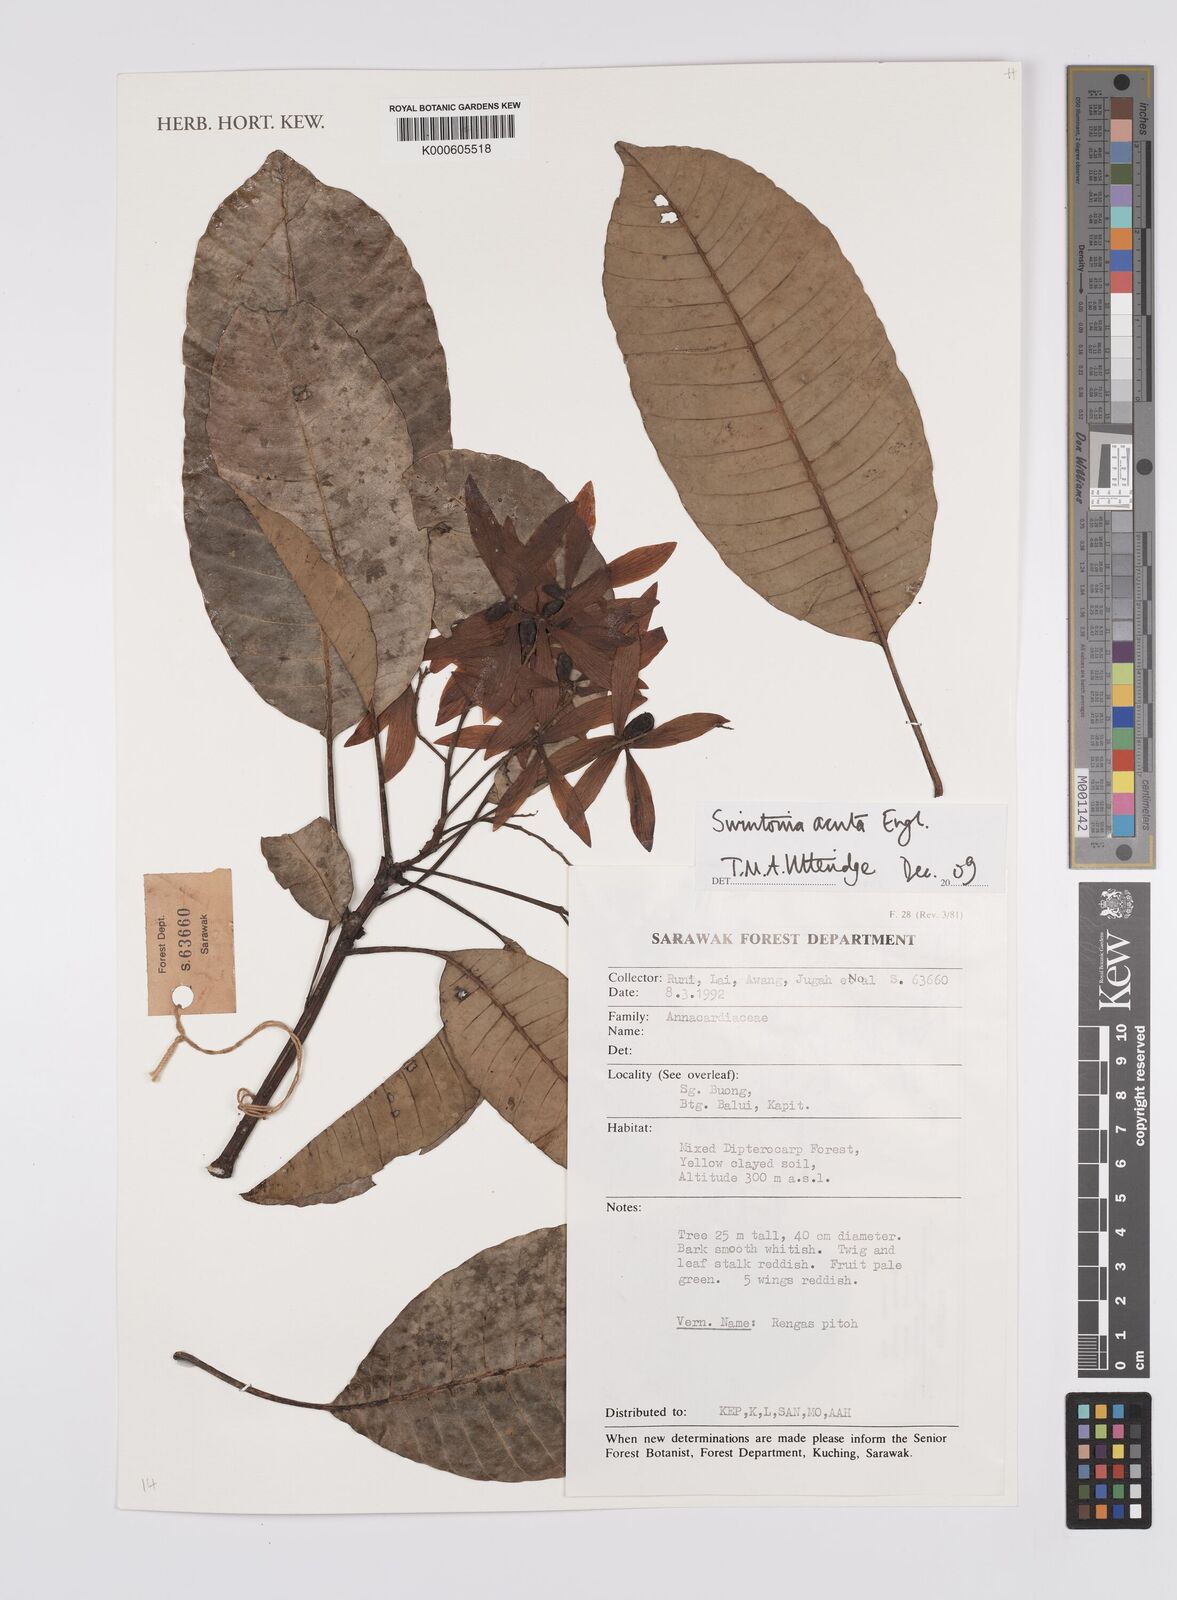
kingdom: Plantae
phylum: Tracheophyta
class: Magnoliopsida
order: Sapindales
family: Anacardiaceae
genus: Swintonia
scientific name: Swintonia acuta
